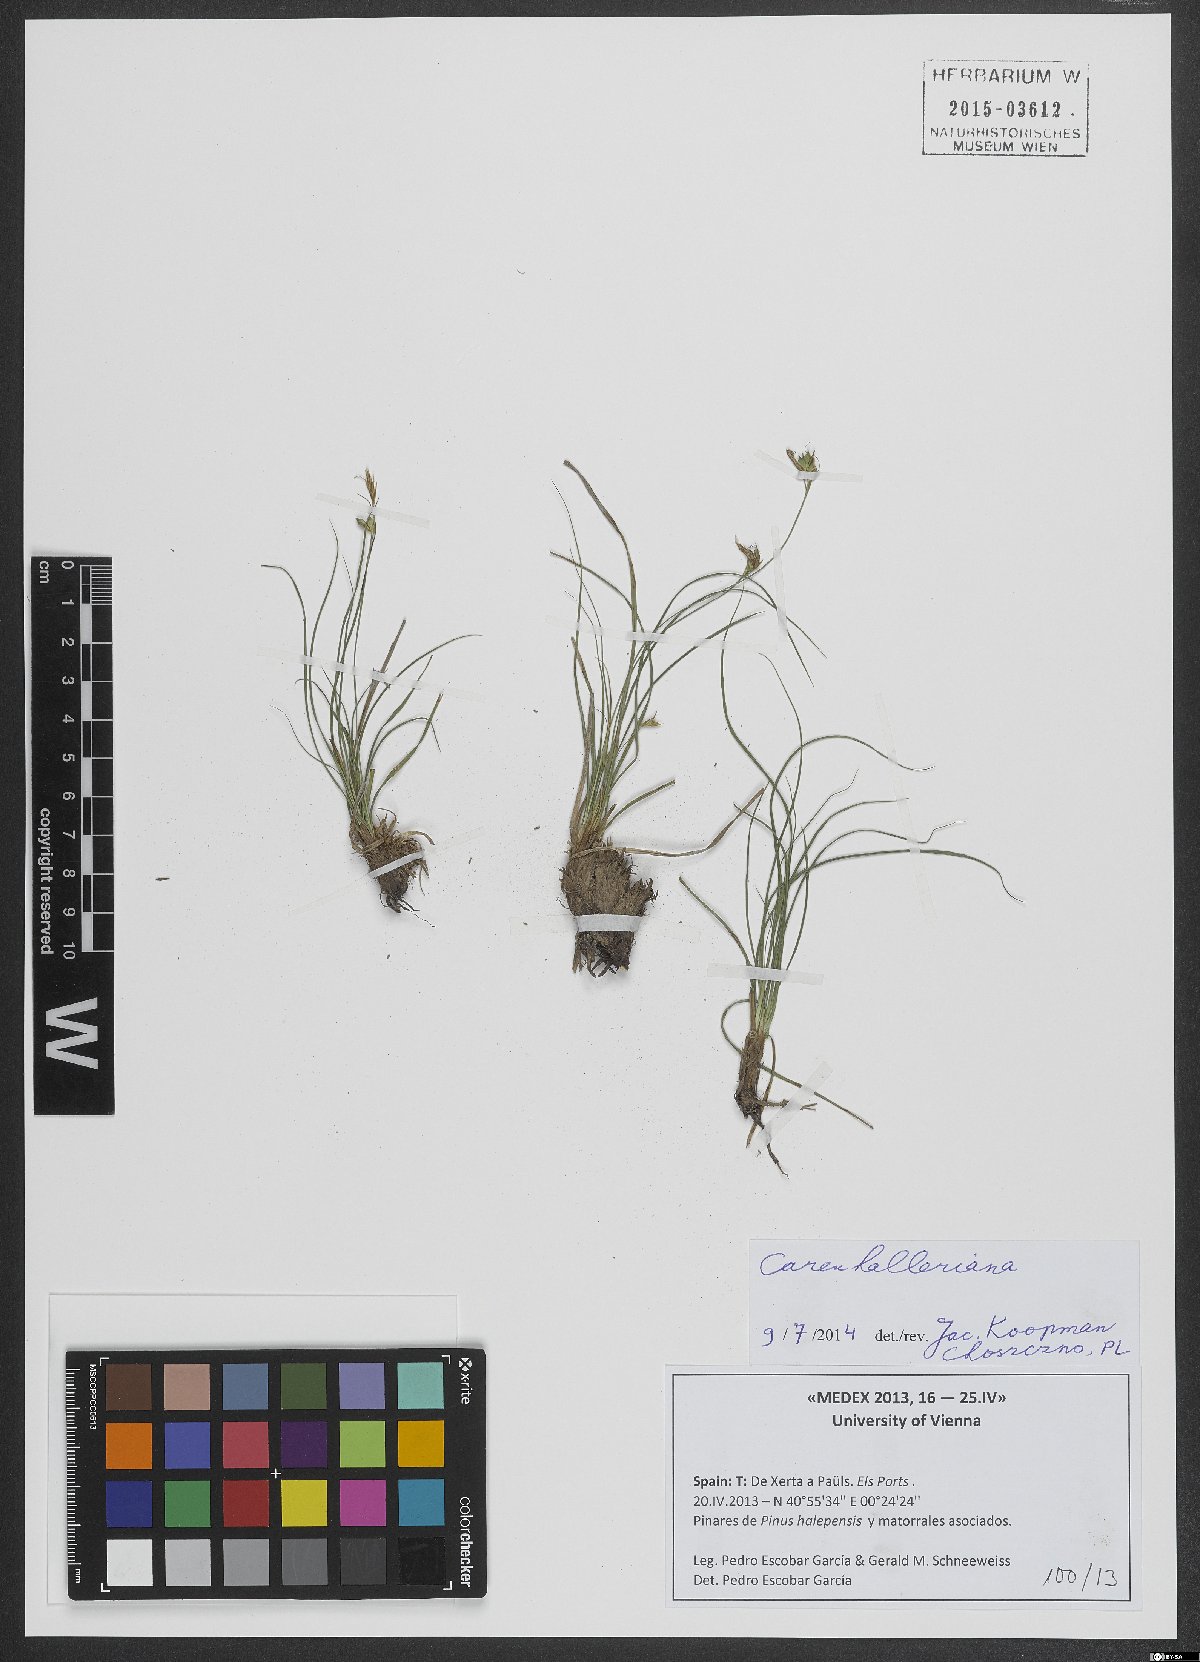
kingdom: Plantae
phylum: Tracheophyta
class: Liliopsida
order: Poales
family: Cyperaceae
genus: Carex
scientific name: Carex halleriana
